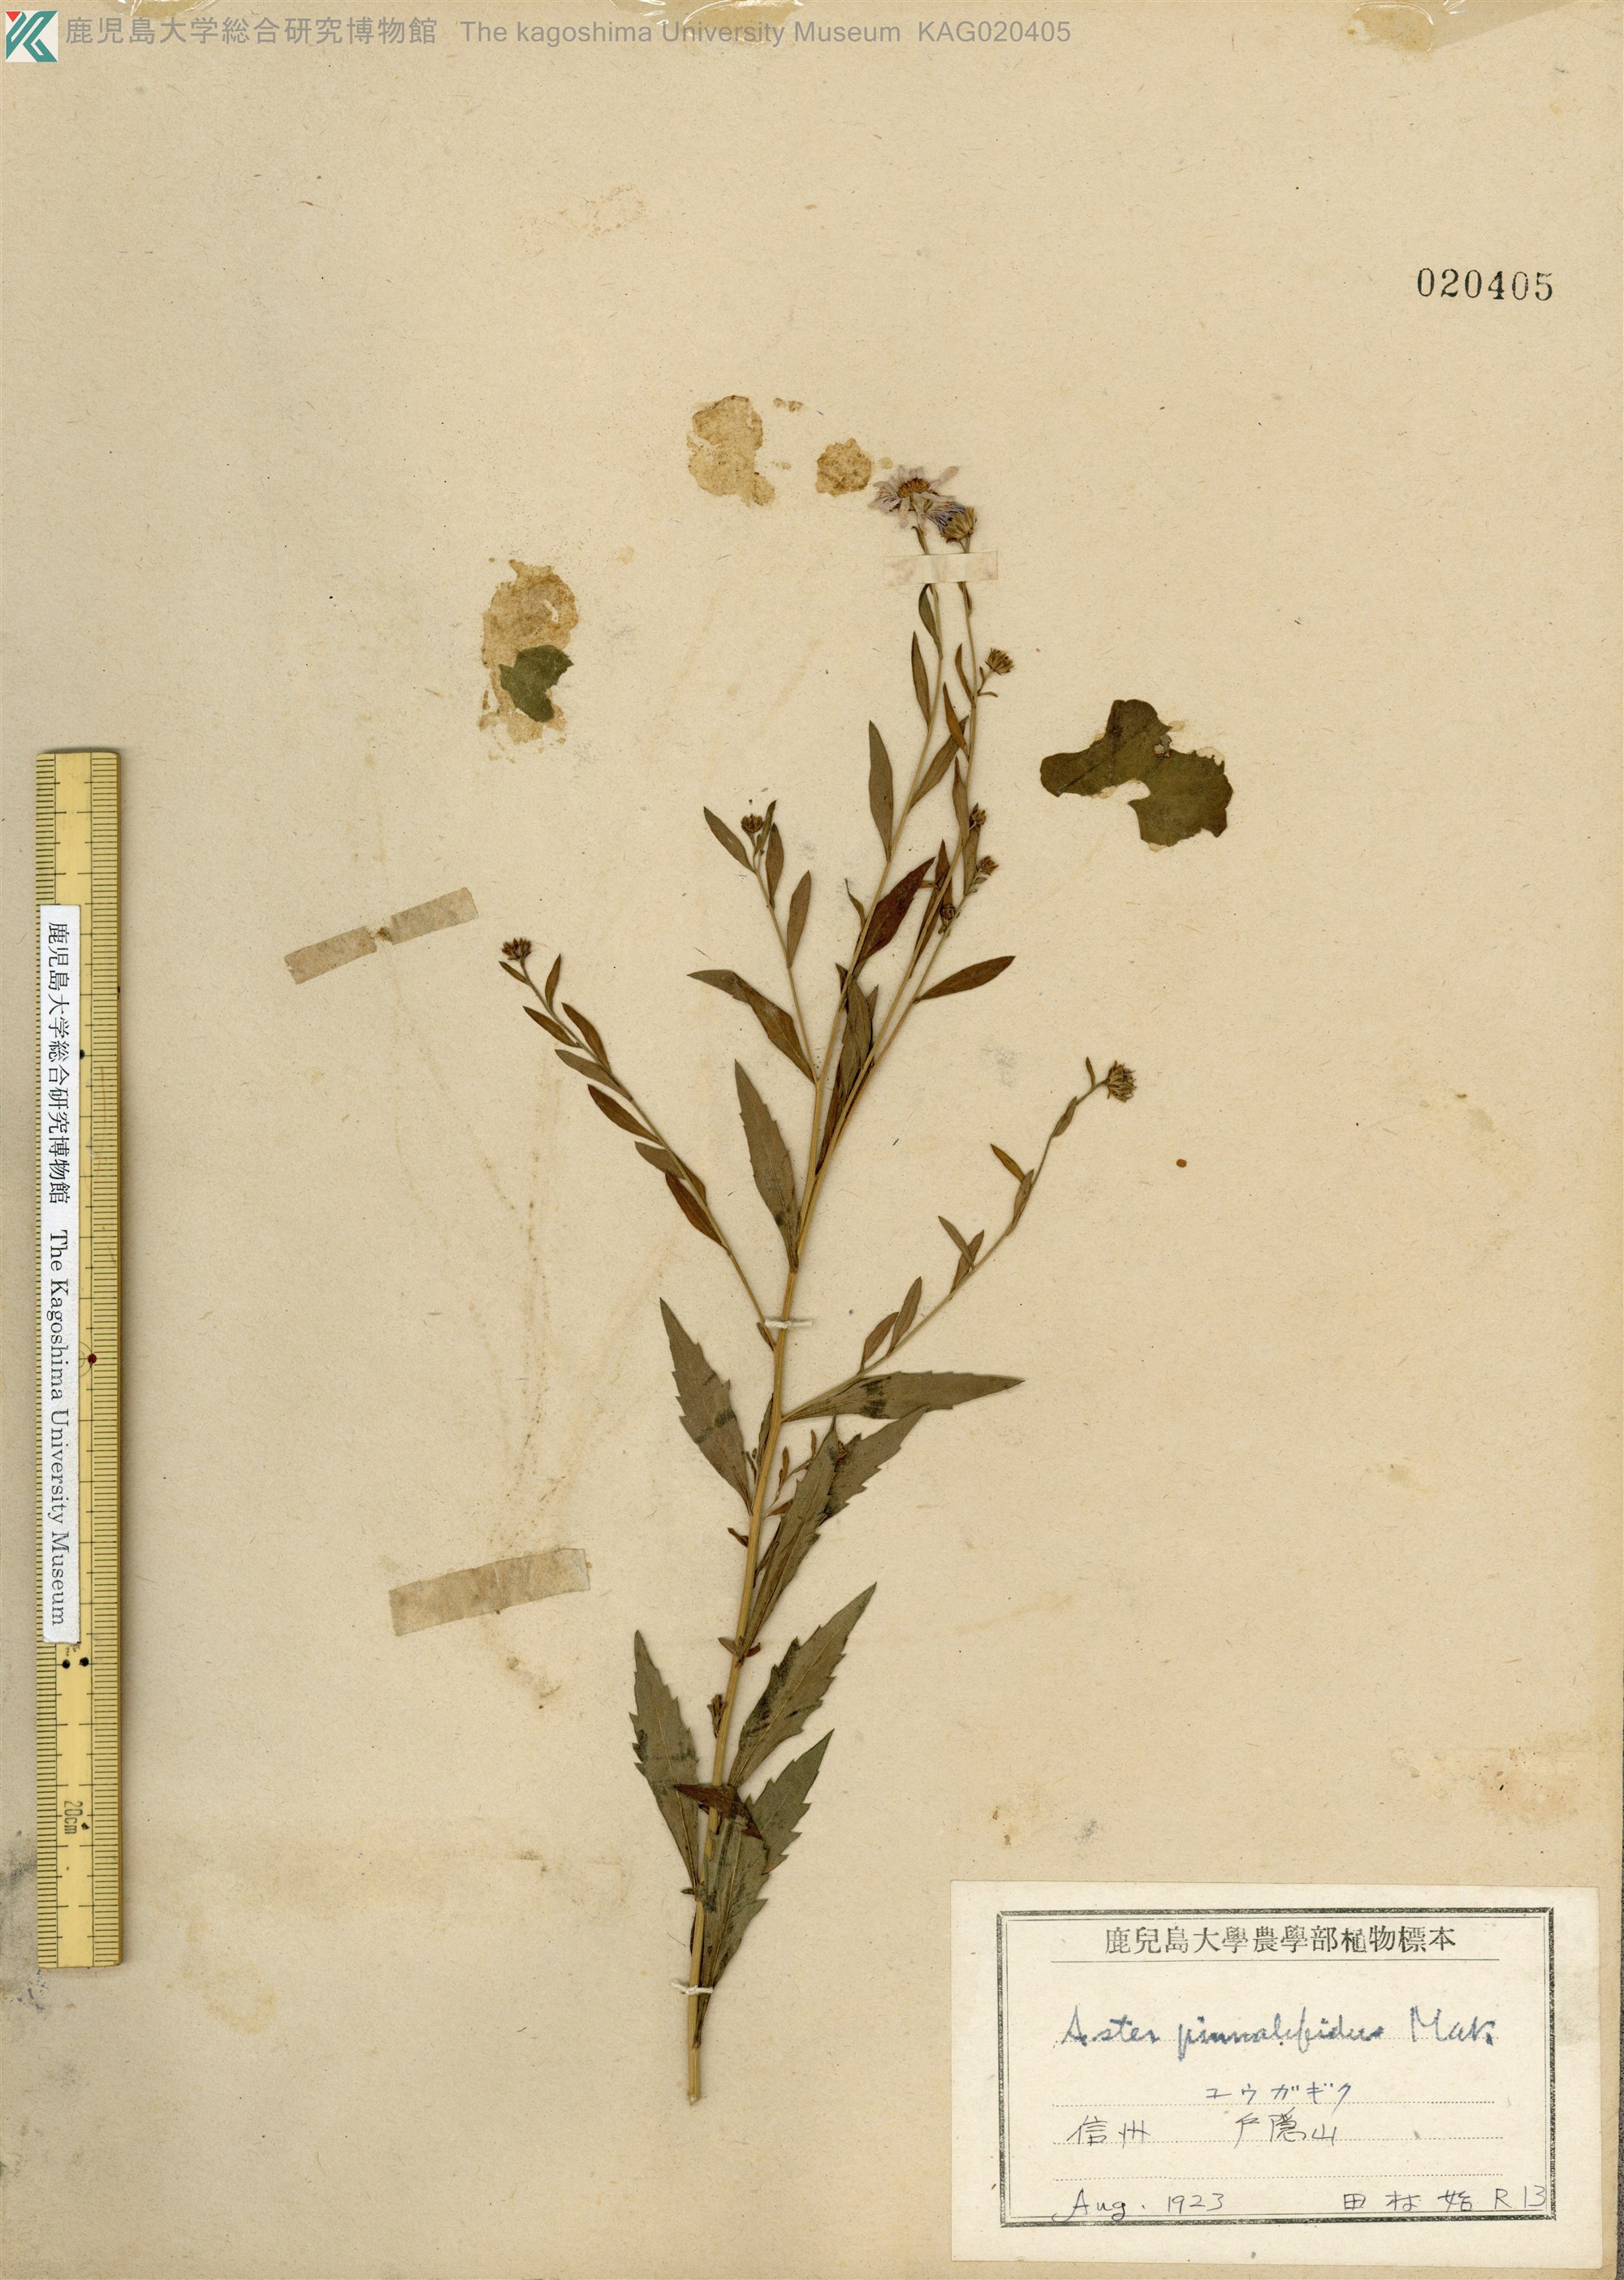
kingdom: Plantae
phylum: Tracheophyta
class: Magnoliopsida
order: Asterales
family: Asteraceae
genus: Kalimeris
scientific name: Kalimeris pinnatifida
